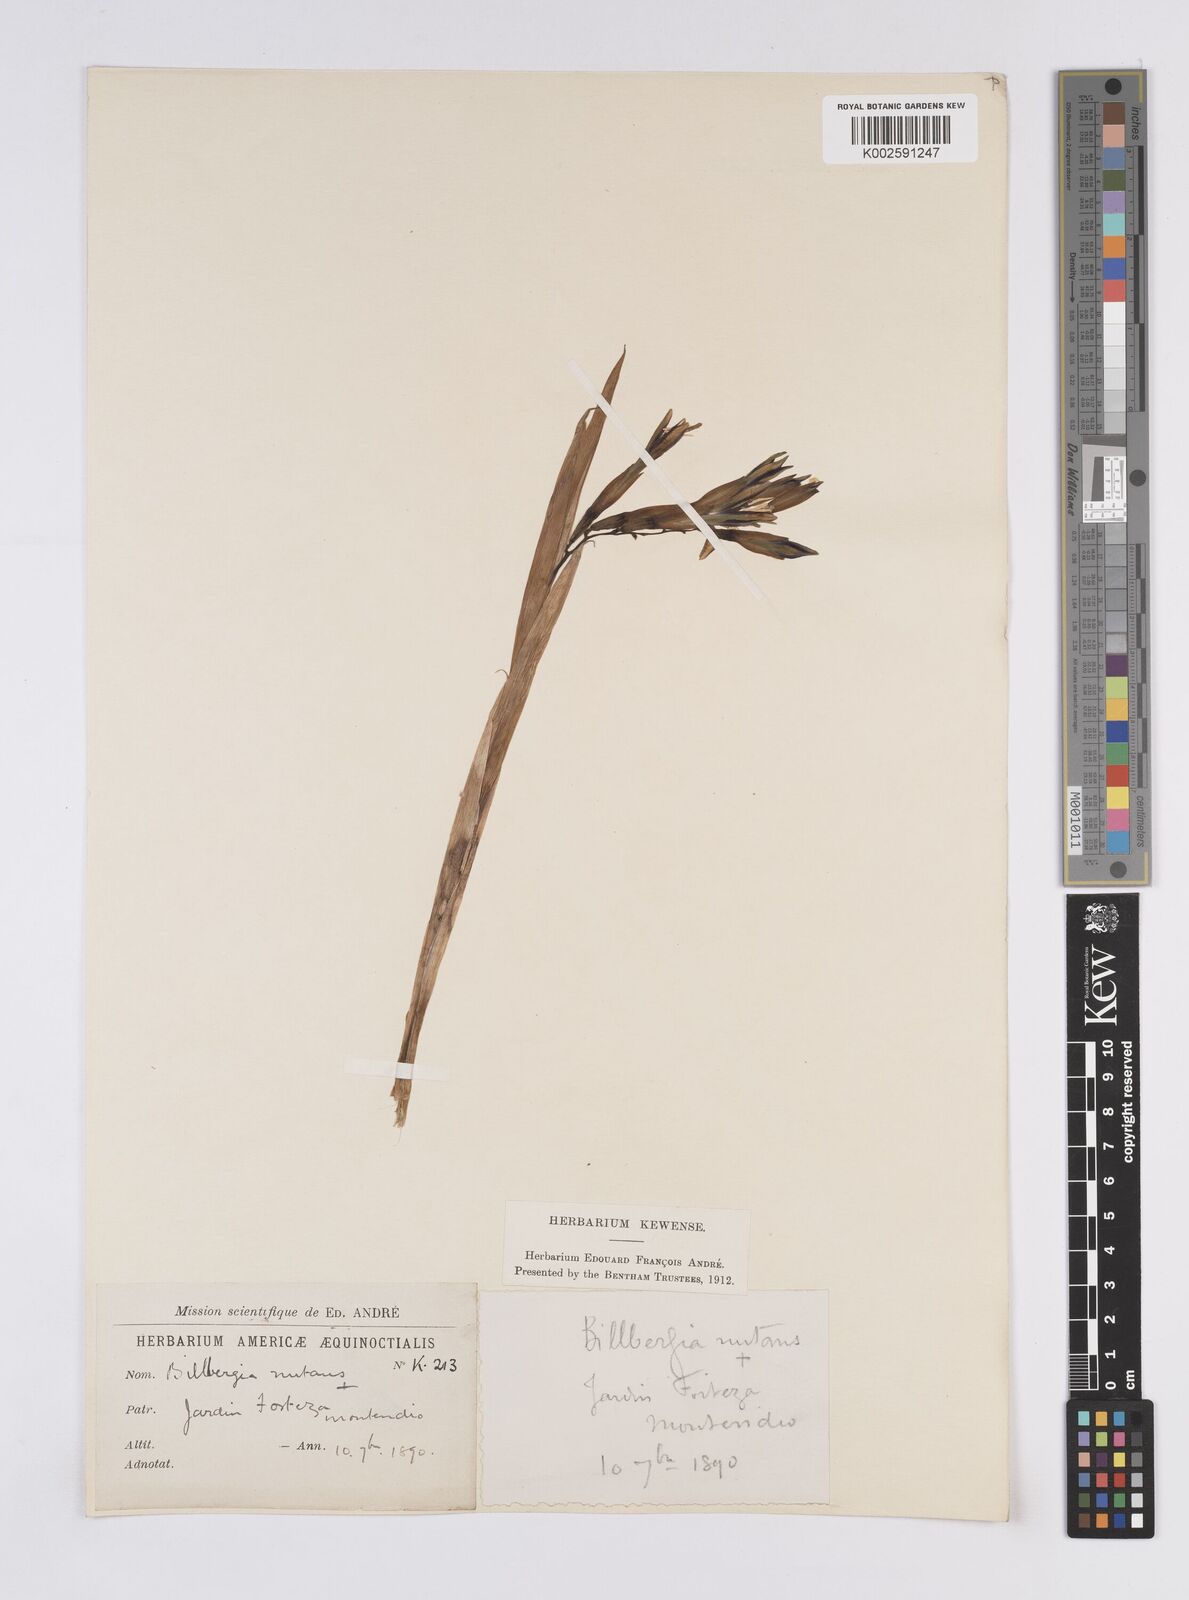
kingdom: Plantae
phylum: Tracheophyta
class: Liliopsida
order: Poales
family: Bromeliaceae
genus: Billbergia
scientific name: Billbergia nutans
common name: Friendship-plant
